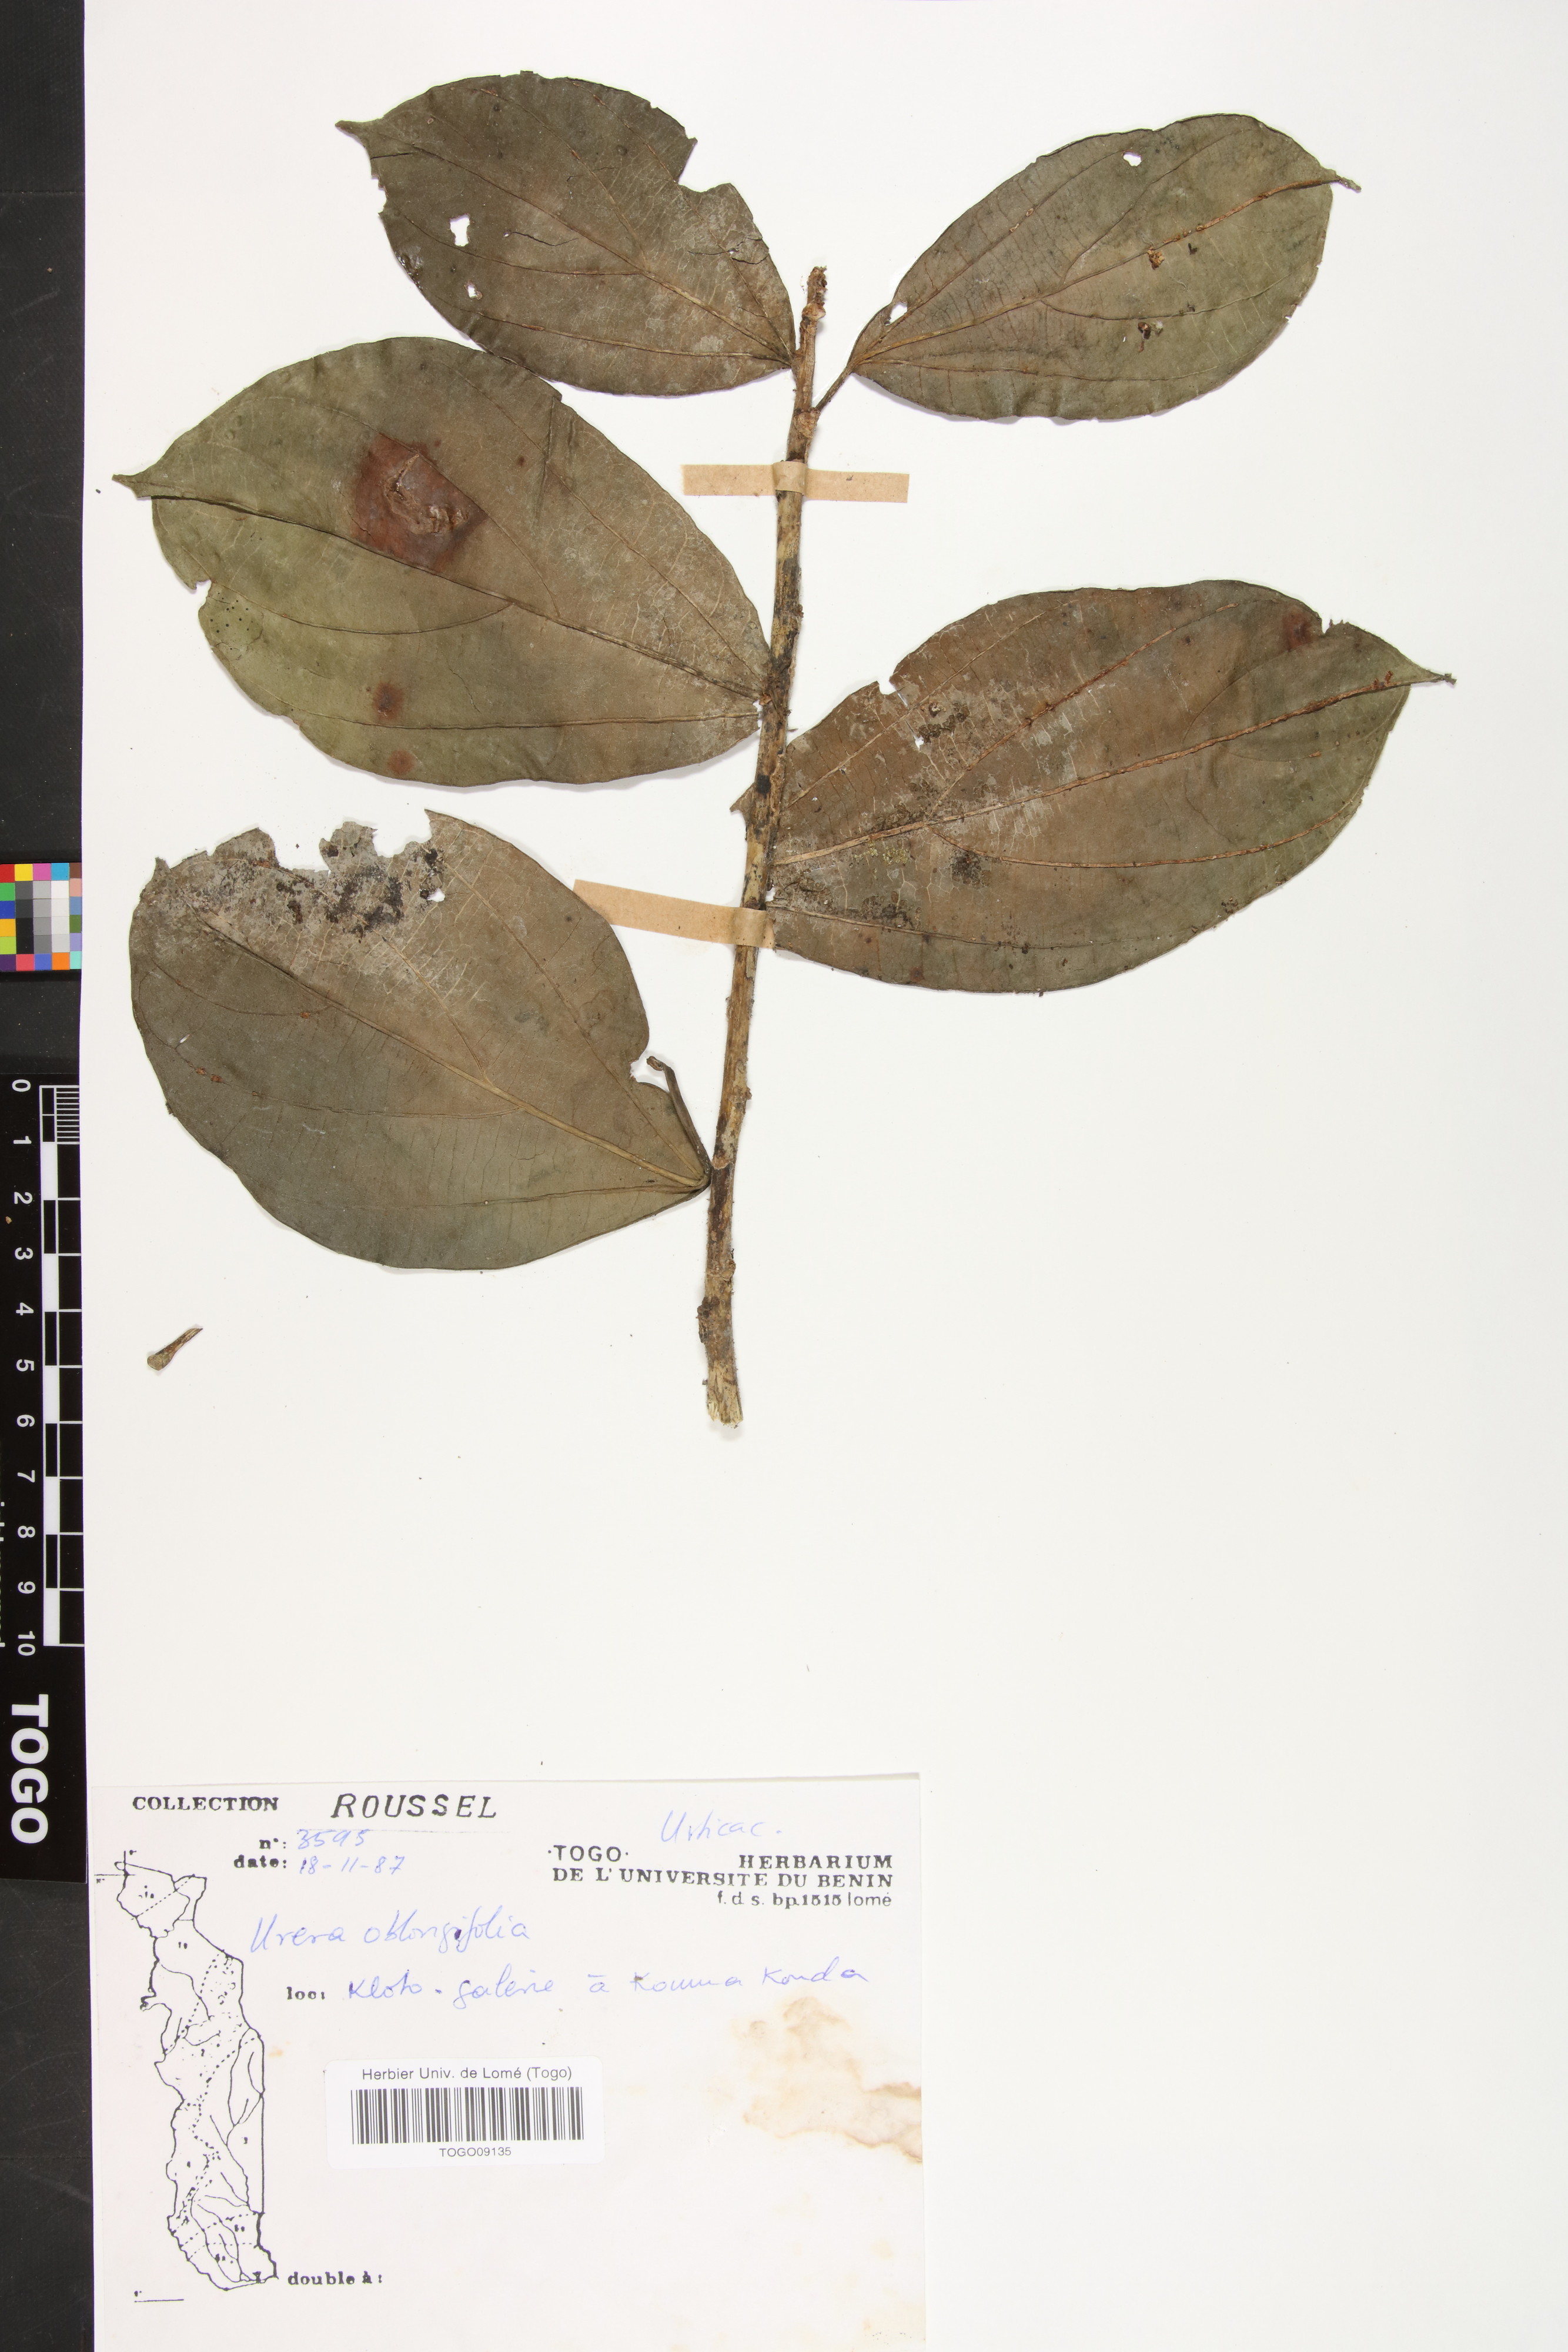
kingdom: Plantae
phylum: Tracheophyta
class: Magnoliopsida
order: Rosales
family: Urticaceae
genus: Scepocarpus
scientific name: Scepocarpus oblongifolius
